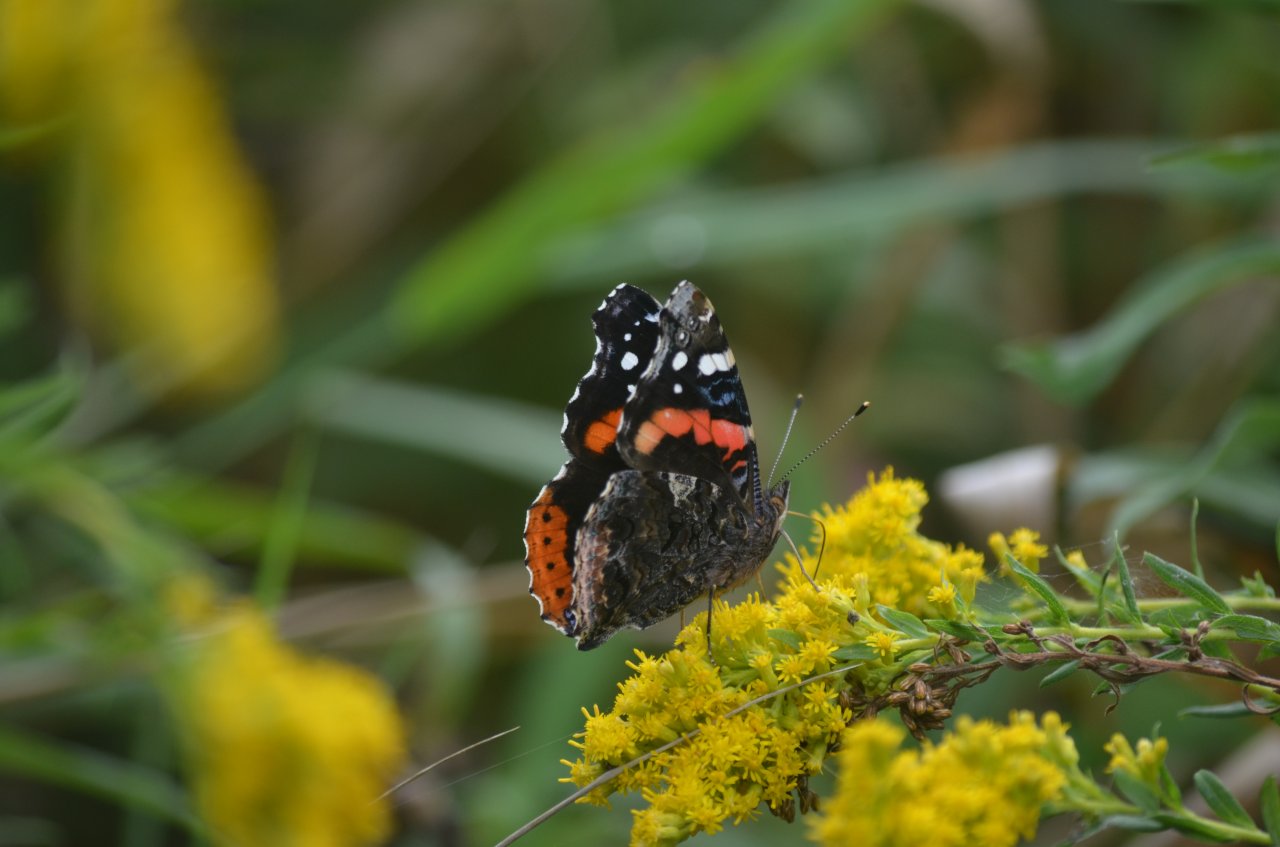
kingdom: Animalia
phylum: Arthropoda
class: Insecta
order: Lepidoptera
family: Nymphalidae
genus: Vanessa
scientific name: Vanessa atalanta
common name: Red Admiral
